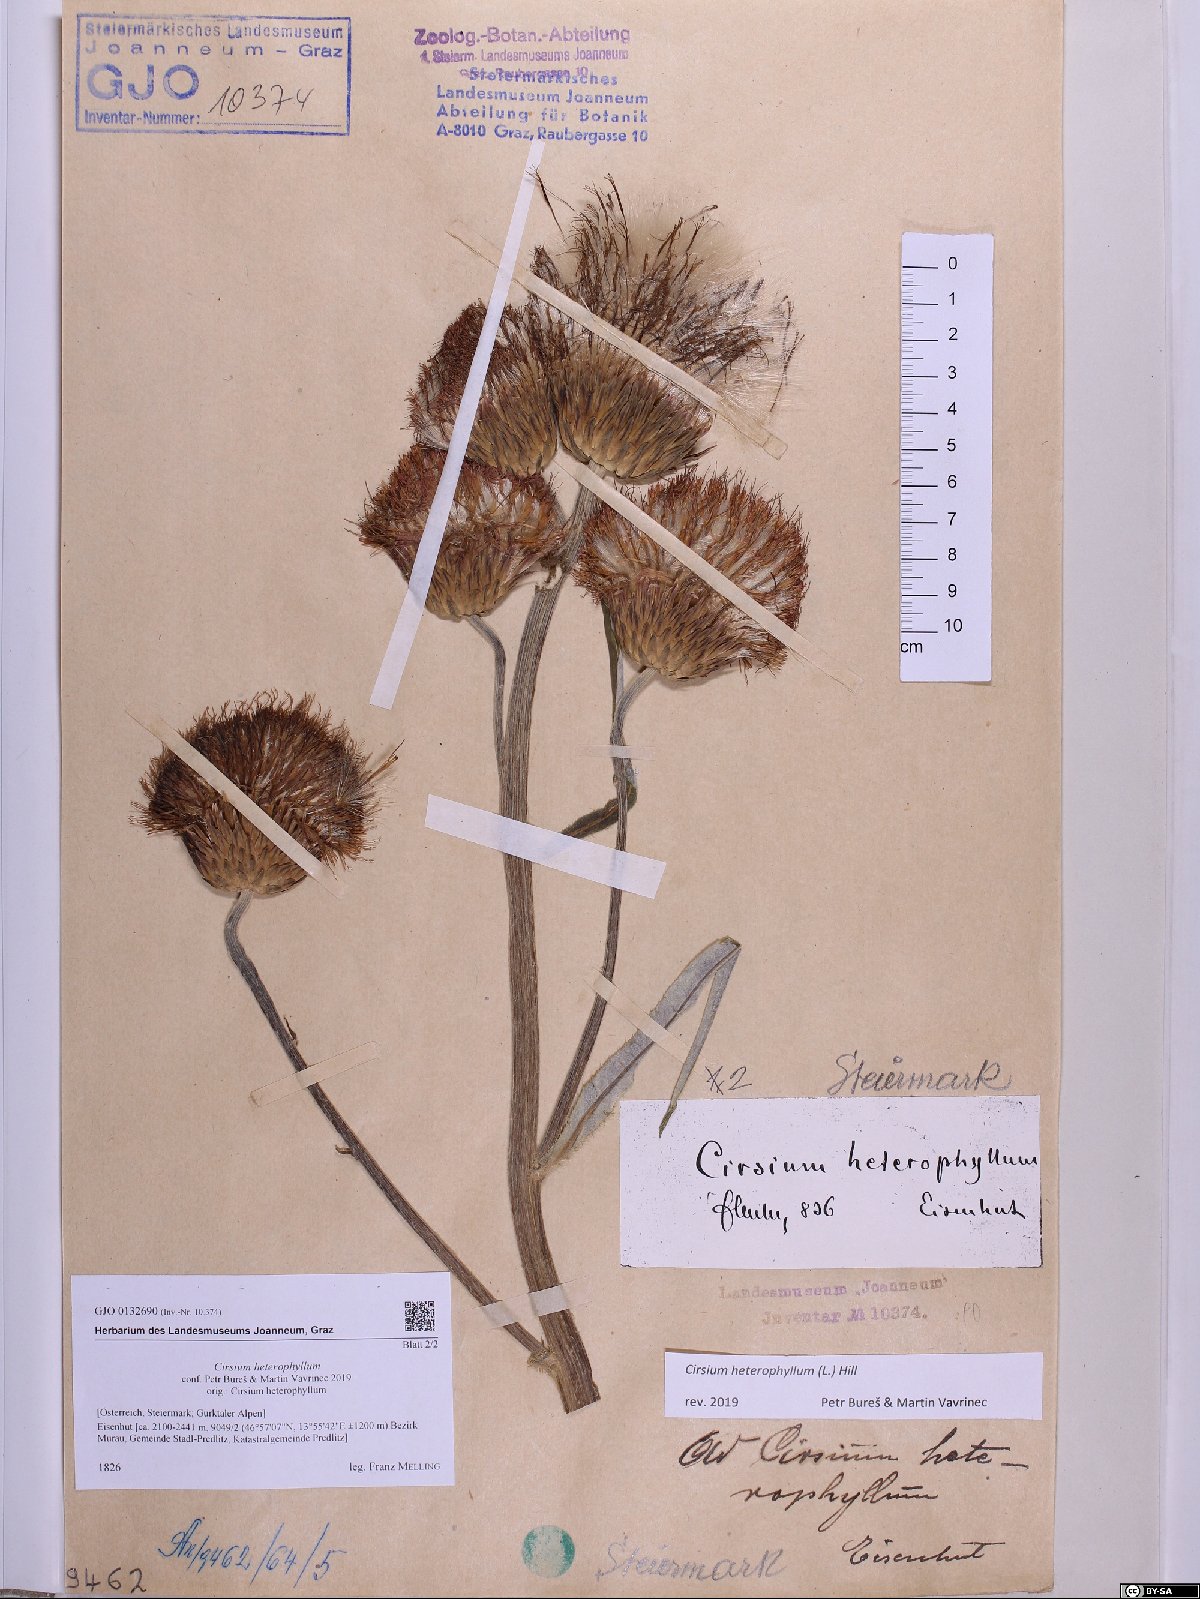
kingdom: Plantae
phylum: Tracheophyta
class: Magnoliopsida
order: Asterales
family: Asteraceae
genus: Cirsium
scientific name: Cirsium heterophyllum
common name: Melancholy thistle
